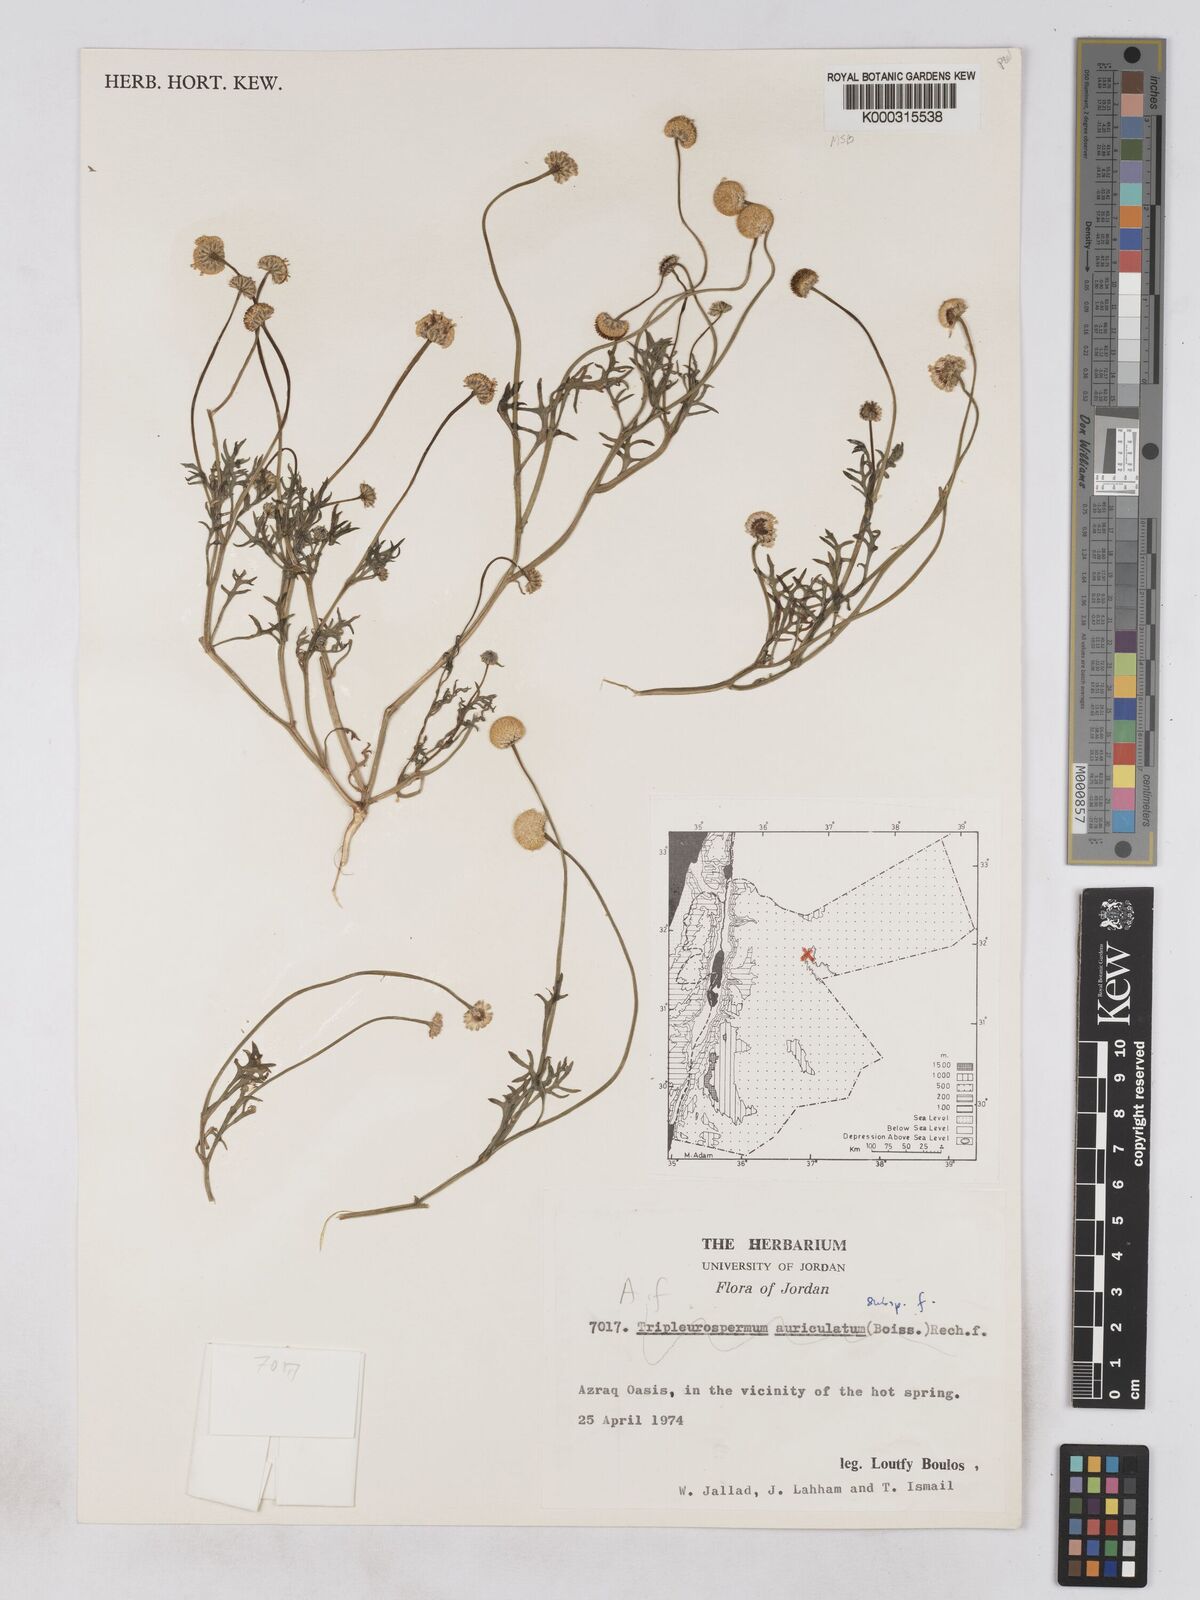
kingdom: Plantae
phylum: Tracheophyta
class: Magnoliopsida
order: Asterales
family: Asteraceae
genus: Otoglyphis
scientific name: Otoglyphis factorovskyi
